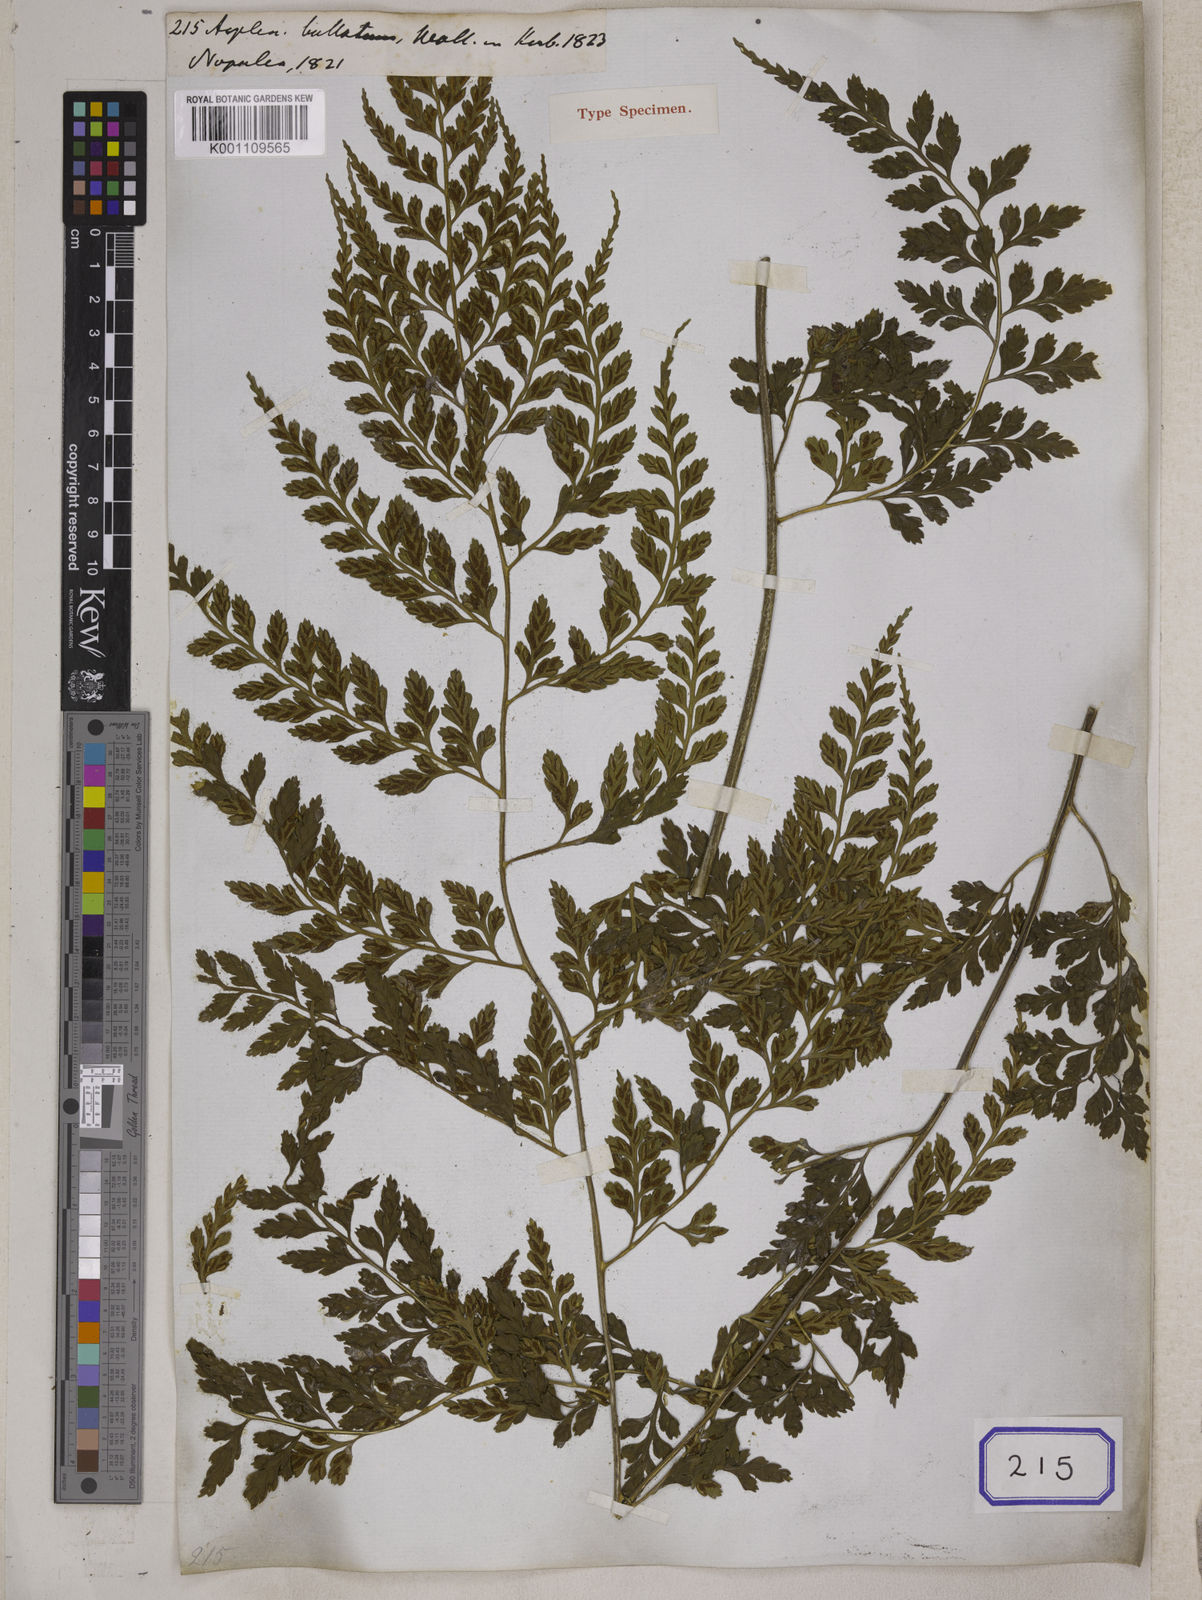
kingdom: Plantae
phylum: Tracheophyta
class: Polypodiopsida
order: Polypodiales
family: Aspleniaceae
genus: Asplenium
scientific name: Asplenium bullatum
